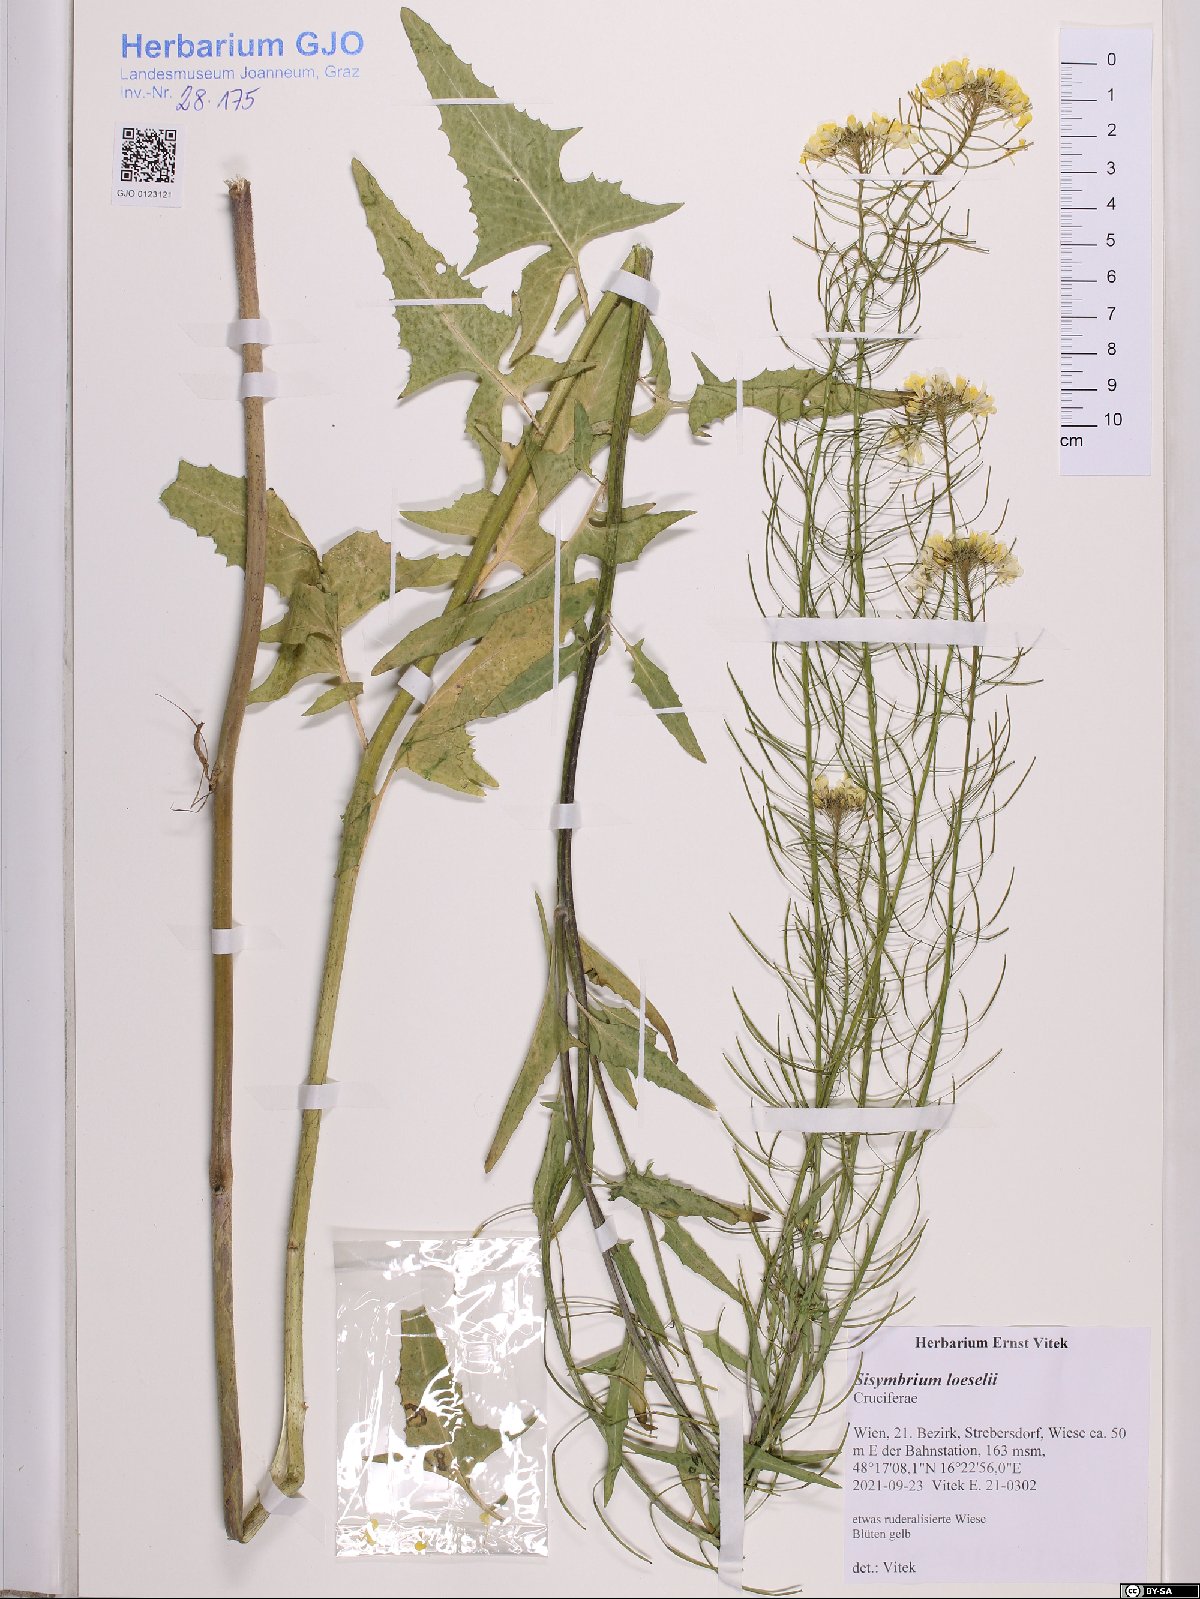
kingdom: Plantae
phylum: Tracheophyta
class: Magnoliopsida
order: Brassicales
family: Brassicaceae
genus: Sisymbrium
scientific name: Sisymbrium loeselii
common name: False london-rocket
